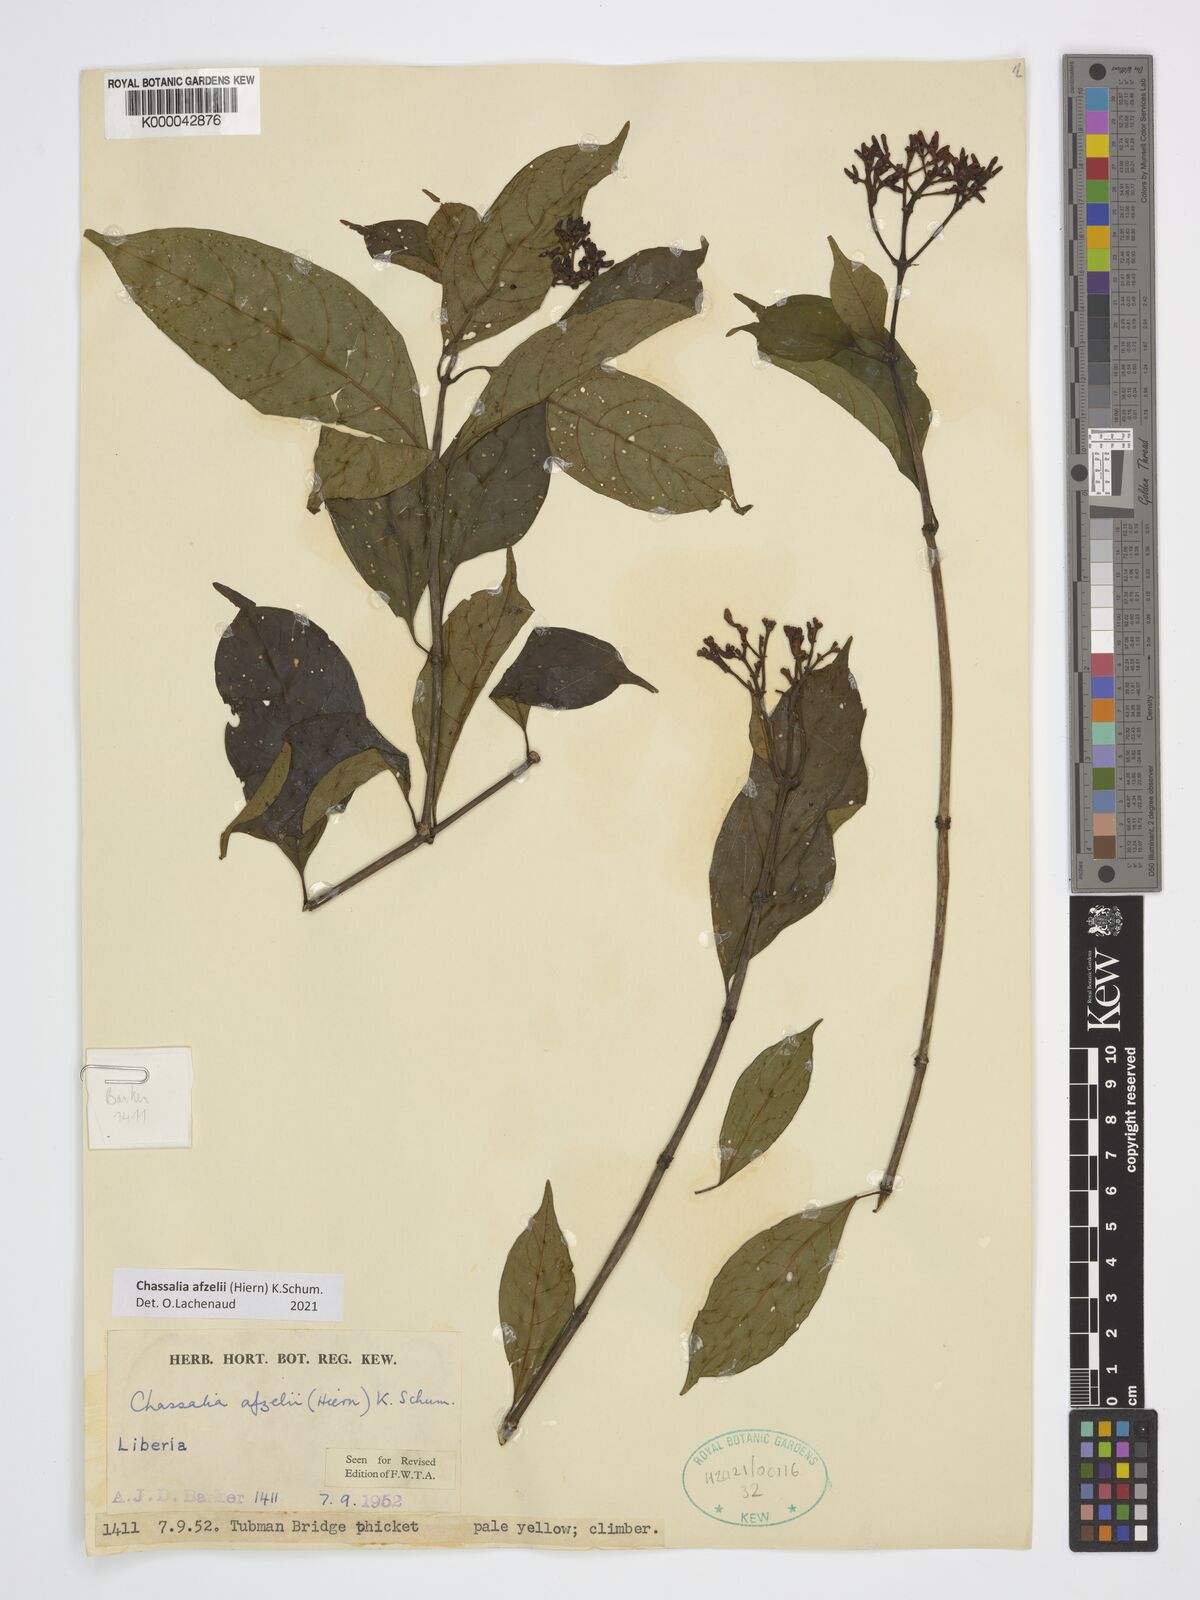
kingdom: Plantae
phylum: Tracheophyta
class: Magnoliopsida
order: Gentianales
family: Rubiaceae
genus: Chassalia
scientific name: Chassalia afzelii
